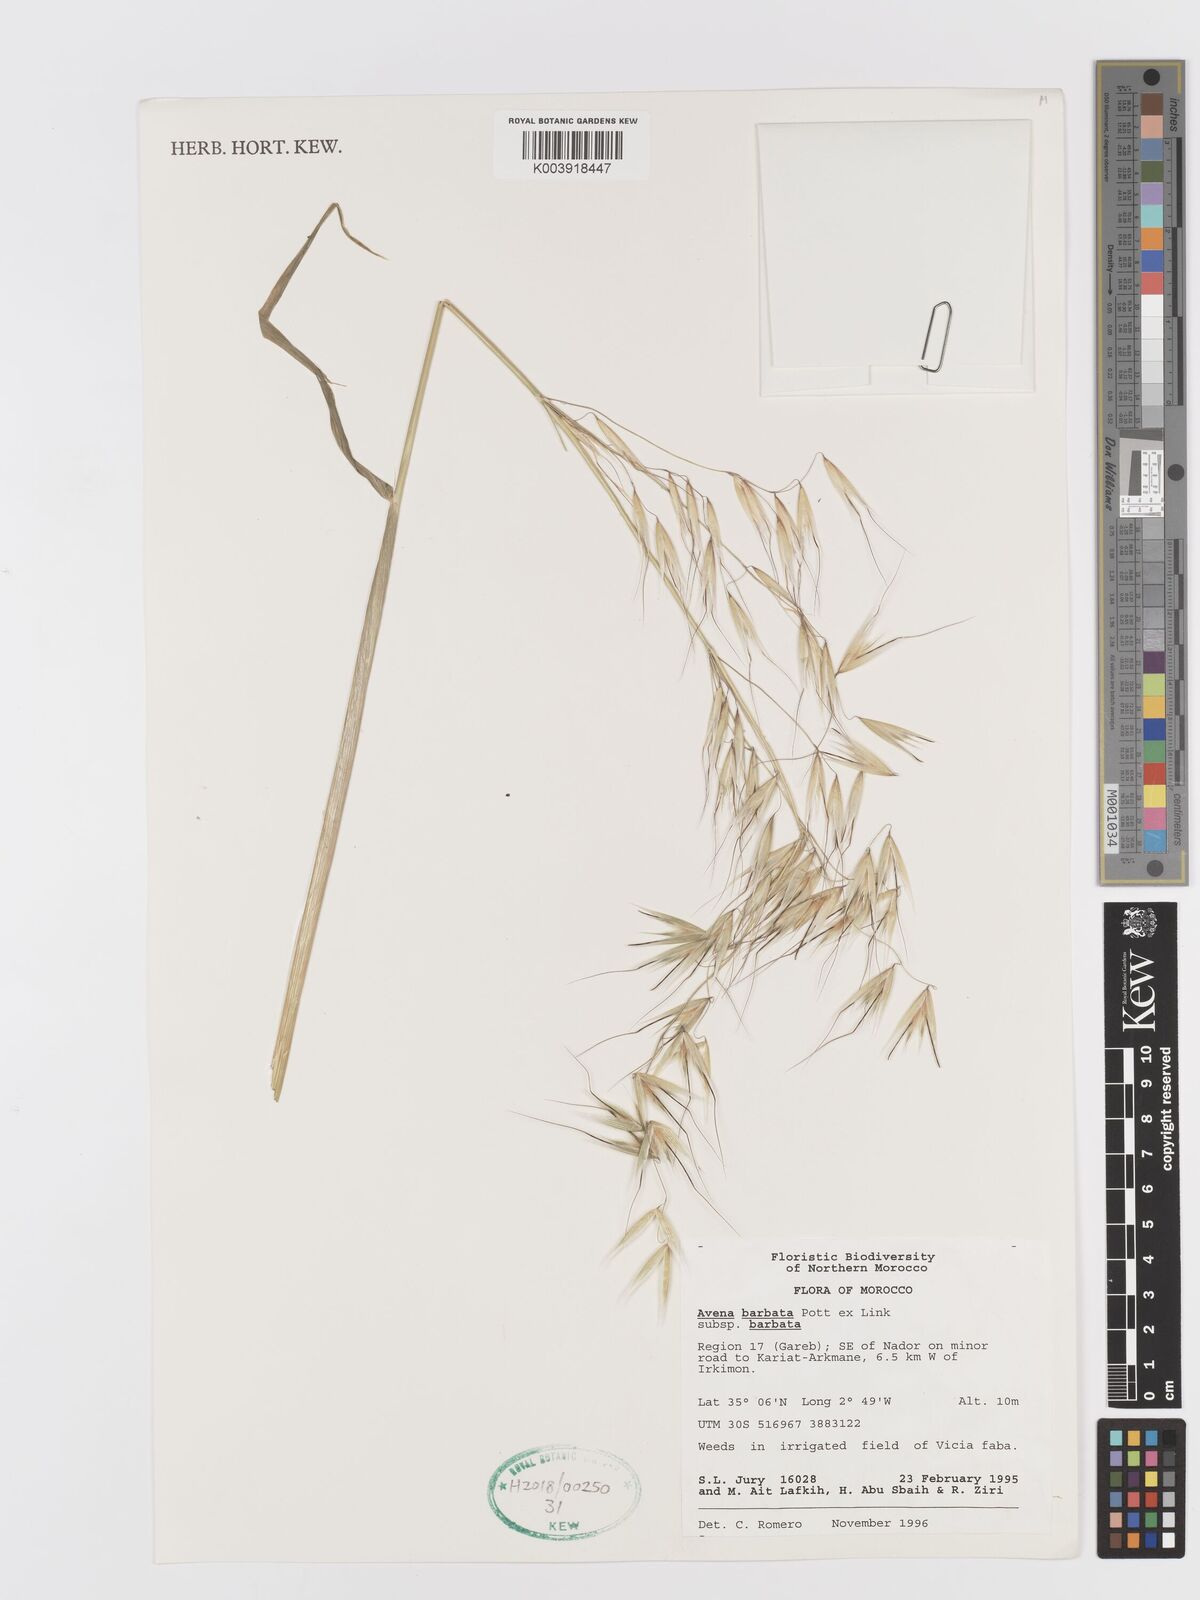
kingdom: Plantae
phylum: Tracheophyta
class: Liliopsida
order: Poales
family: Poaceae
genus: Avena
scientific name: Avena
